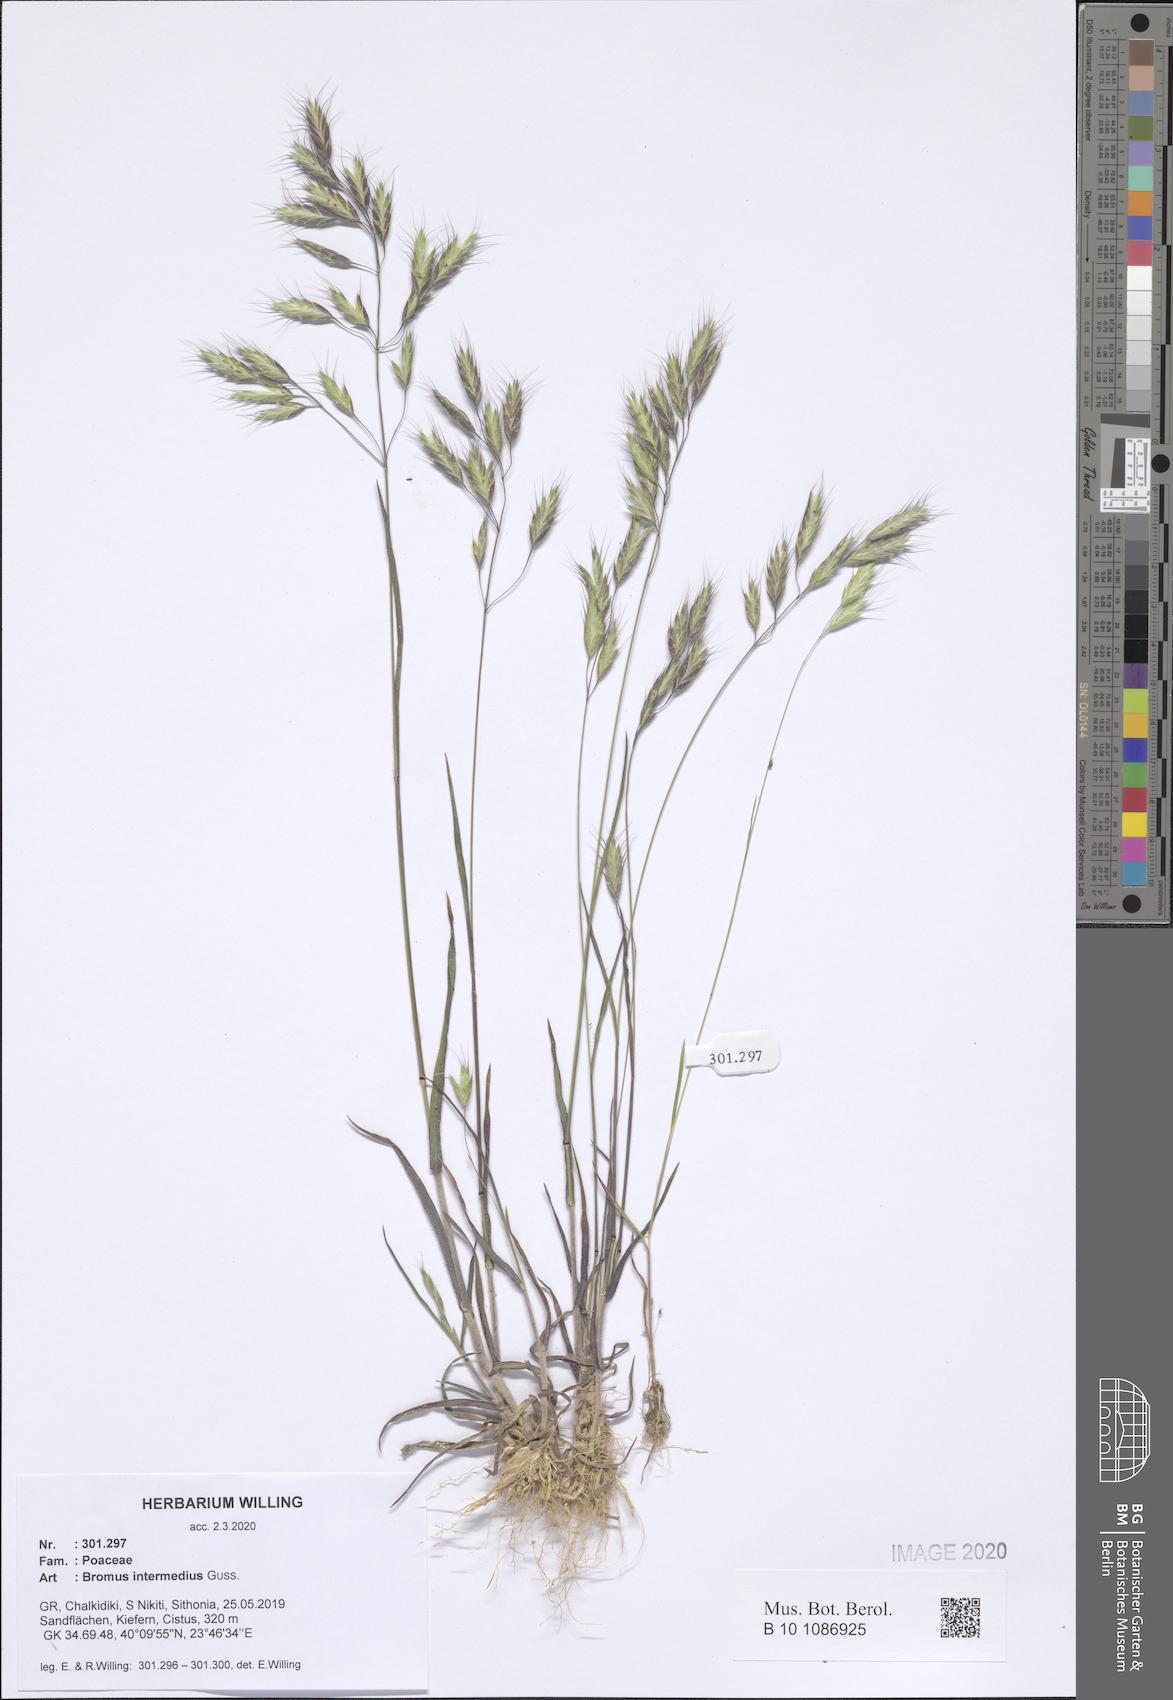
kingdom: Plantae
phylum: Tracheophyta
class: Liliopsida
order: Poales
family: Poaceae
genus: Bromus
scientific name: Bromus intermedius
